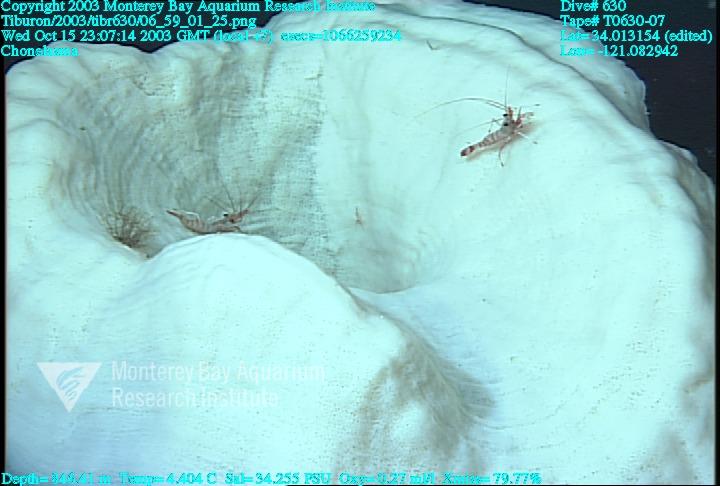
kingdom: Animalia
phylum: Porifera
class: Hexactinellida
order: Sceptrulophora
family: Euretidae
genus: Chonelasma
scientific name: Chonelasma
